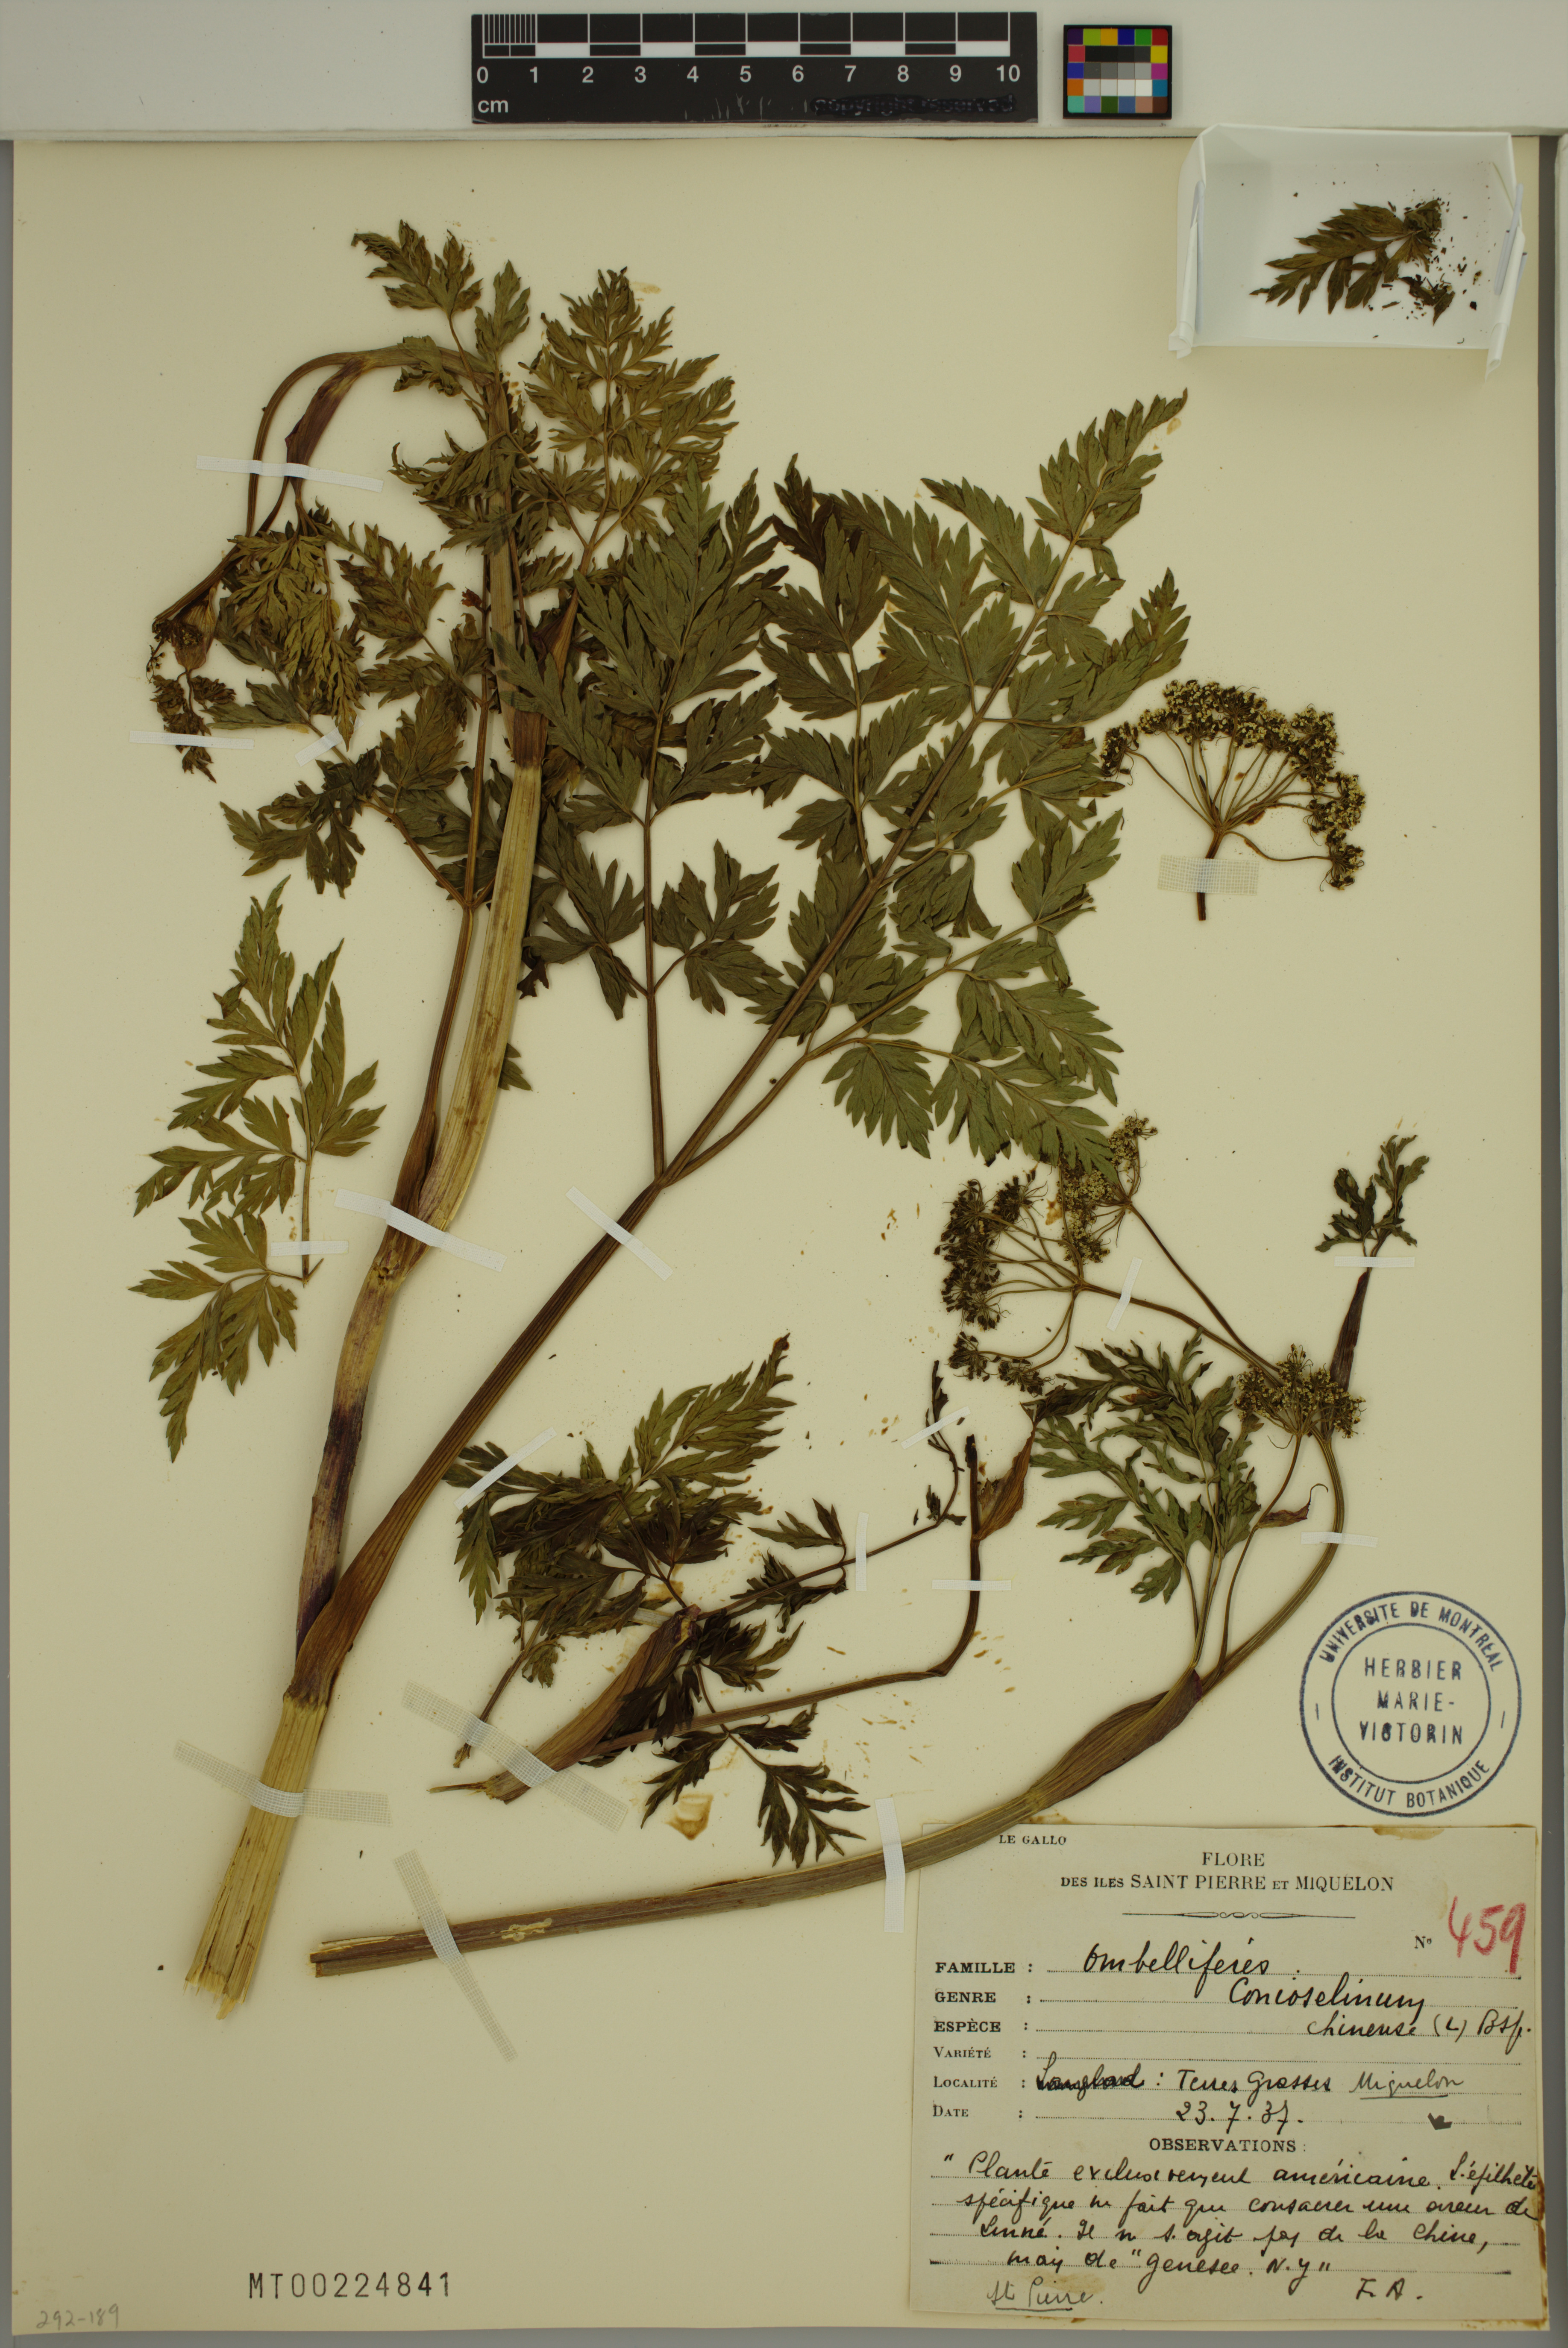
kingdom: Plantae
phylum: Tracheophyta
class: Magnoliopsida
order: Apiales
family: Apiaceae
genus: Kreidion
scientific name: Kreidion chinensis
